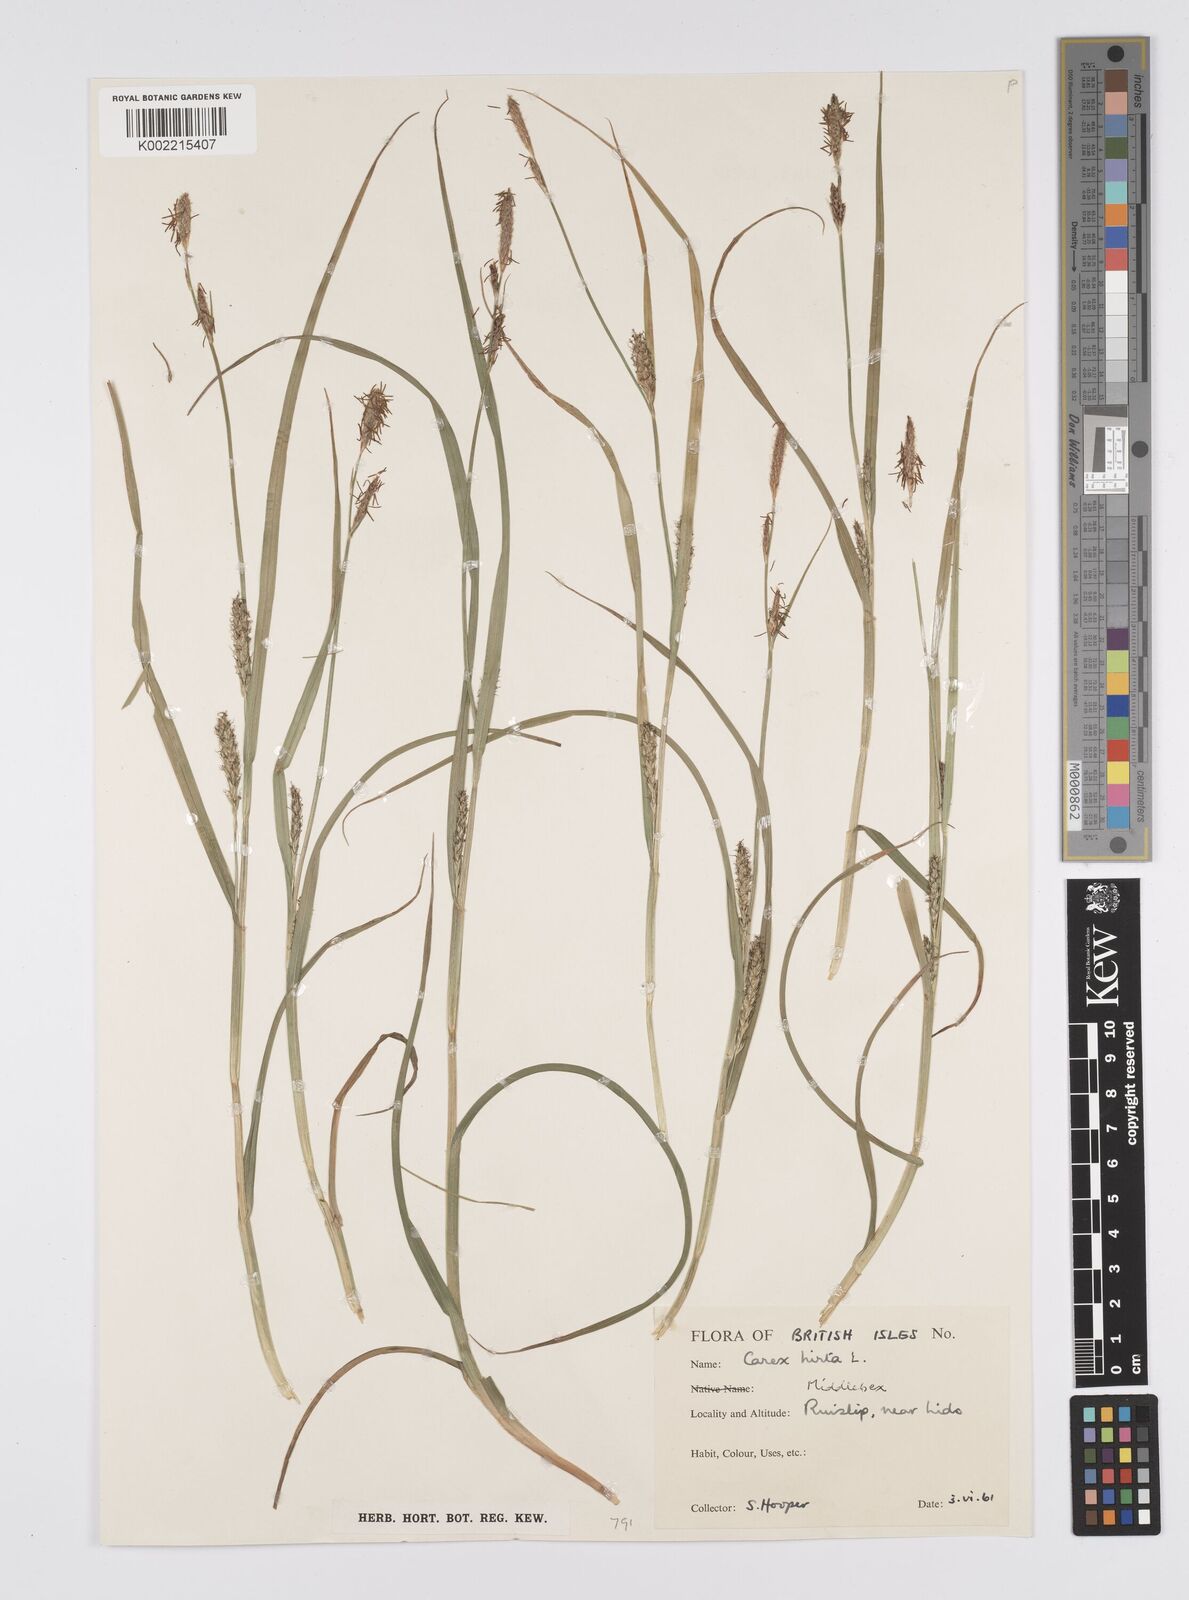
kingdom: Plantae
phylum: Tracheophyta
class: Liliopsida
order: Poales
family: Cyperaceae
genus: Carex
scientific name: Carex hirta
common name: Hairy sedge
